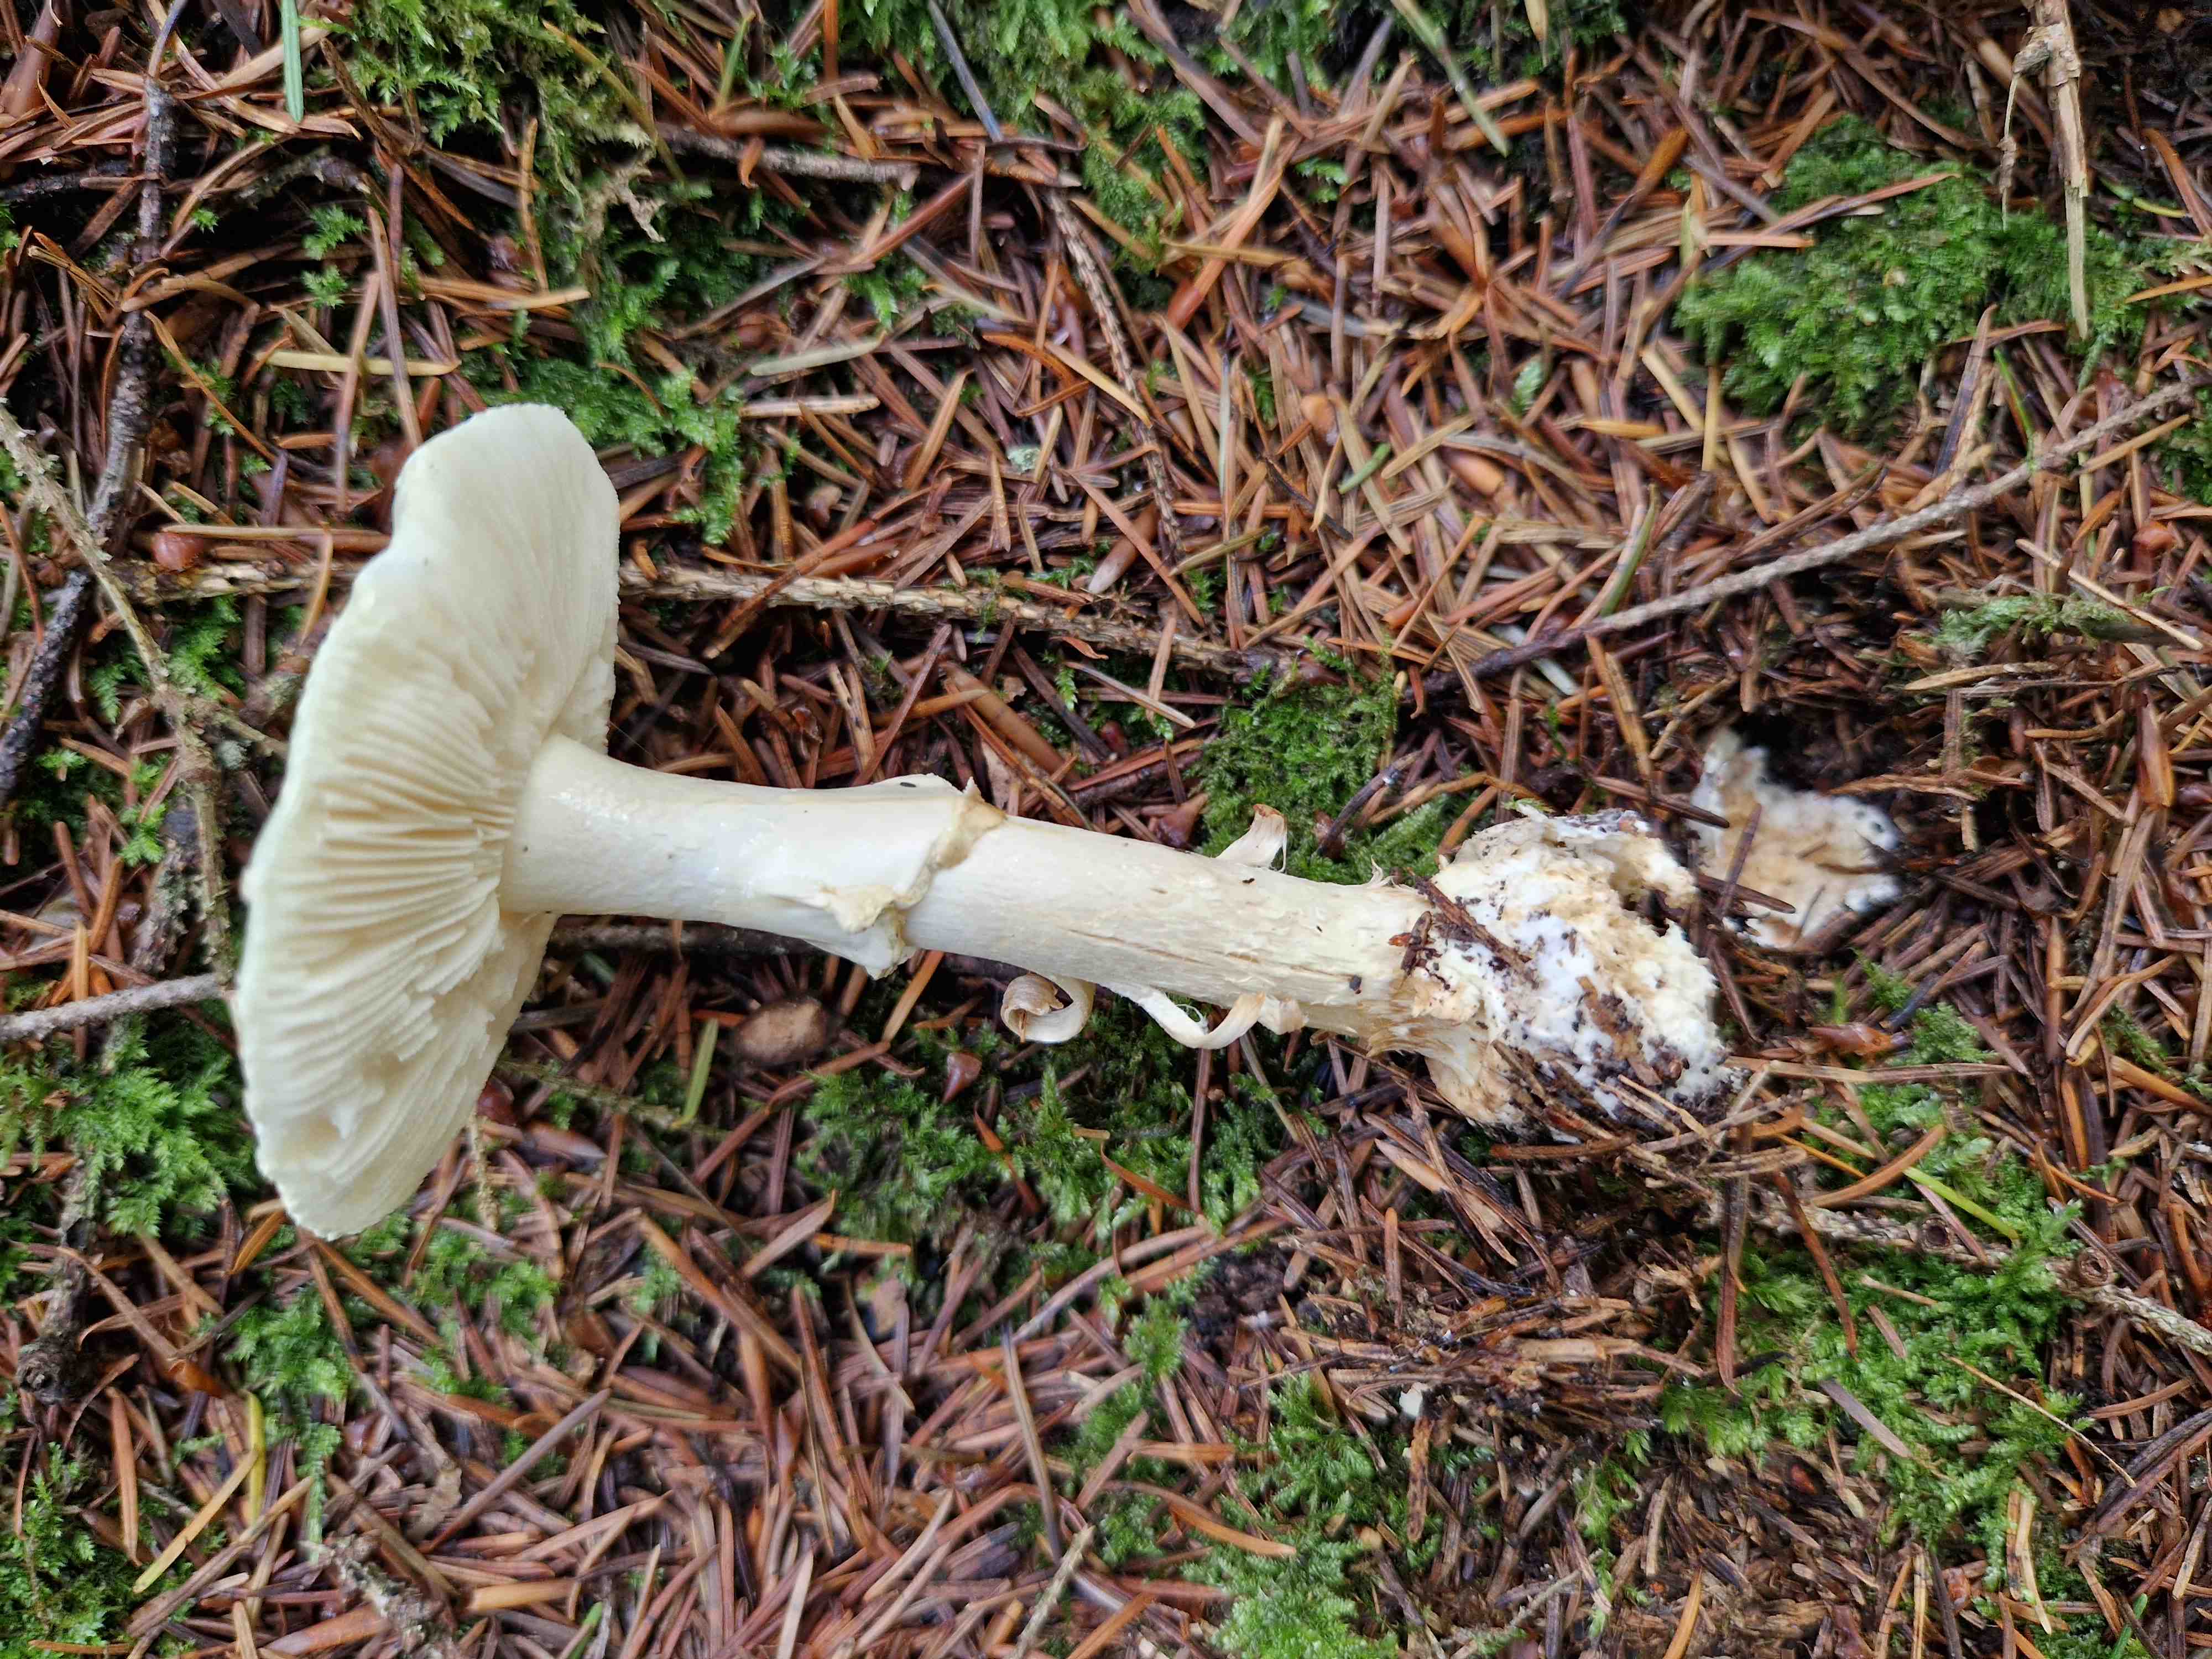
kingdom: Fungi
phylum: Basidiomycota
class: Agaricomycetes
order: Agaricales
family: Amanitaceae
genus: Amanita
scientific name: Amanita citrina
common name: kugleknoldet fluesvamp
